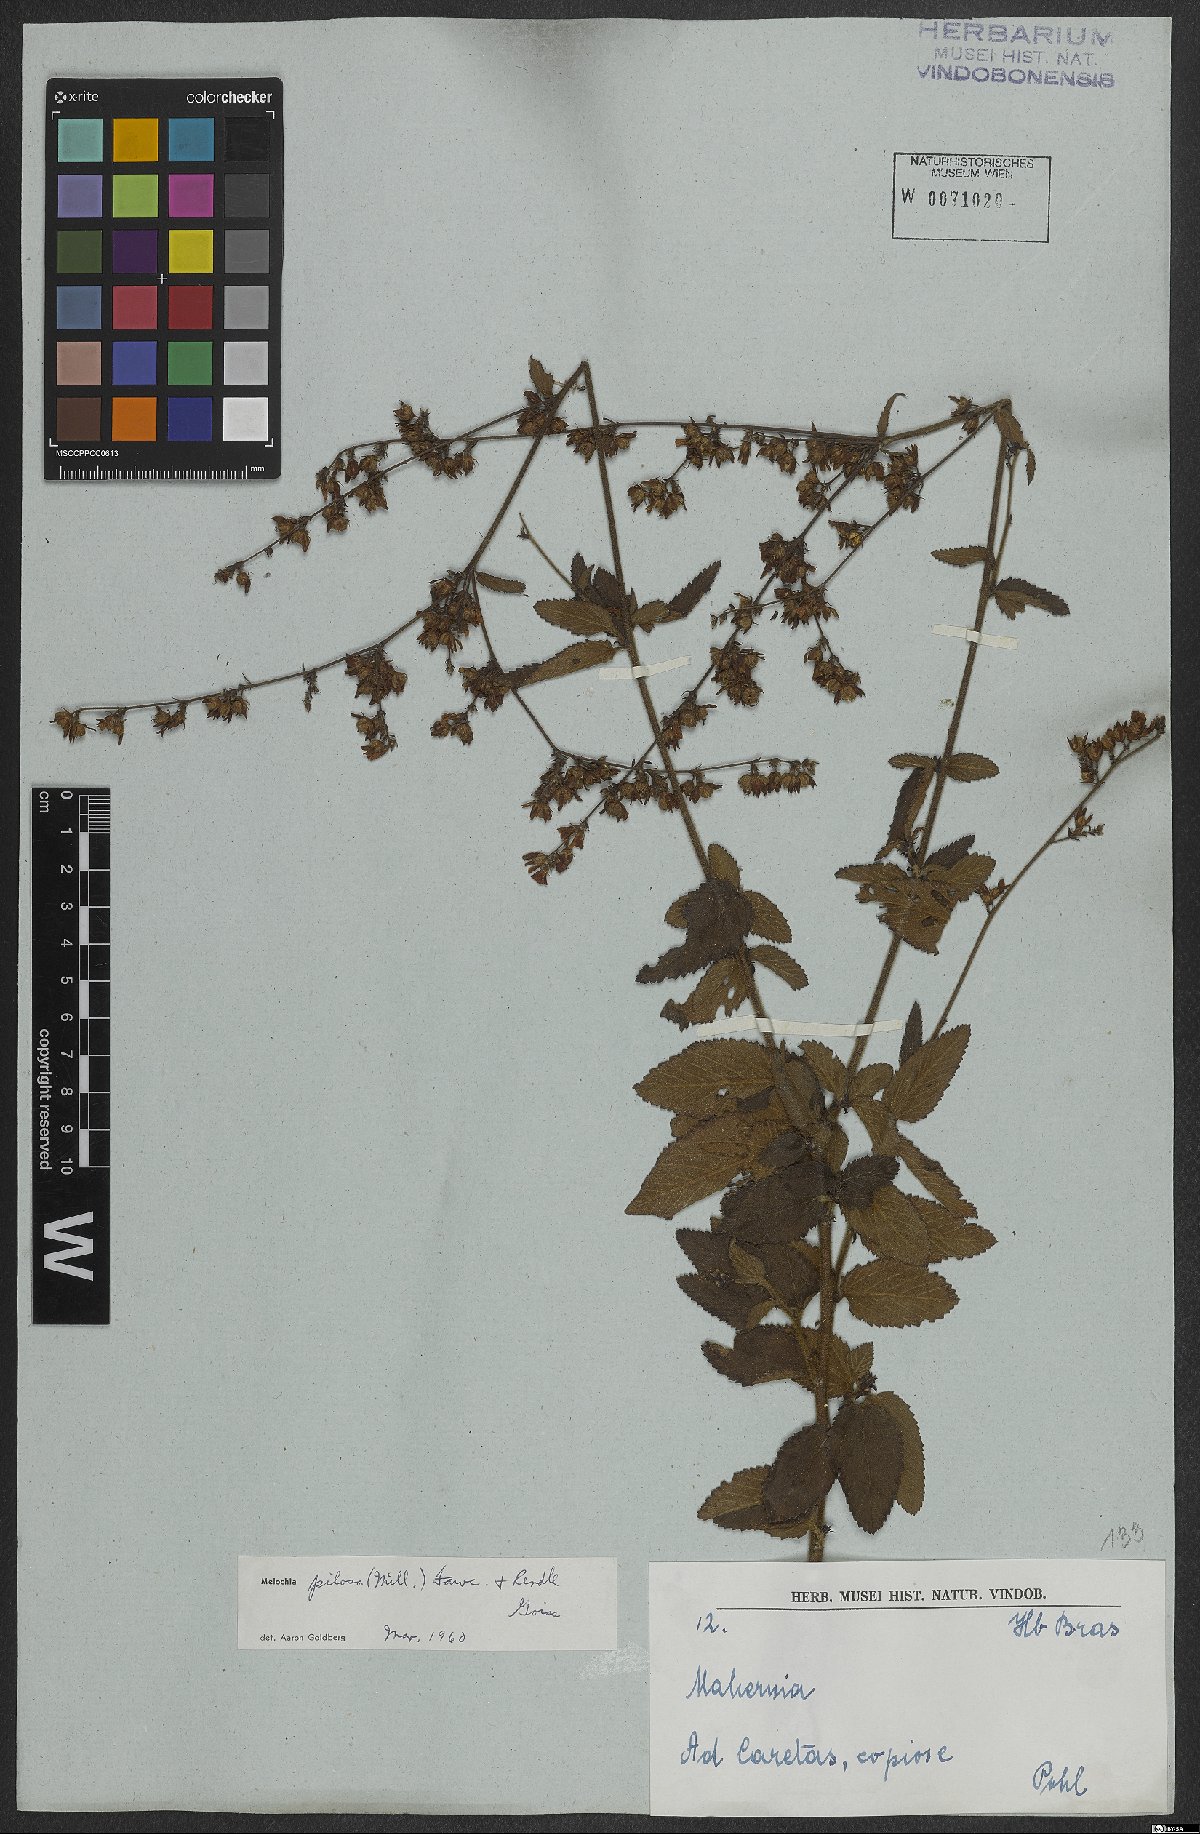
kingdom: Plantae
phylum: Tracheophyta
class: Magnoliopsida
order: Malvales
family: Malvaceae
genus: Melochia
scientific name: Melochia pilosa
